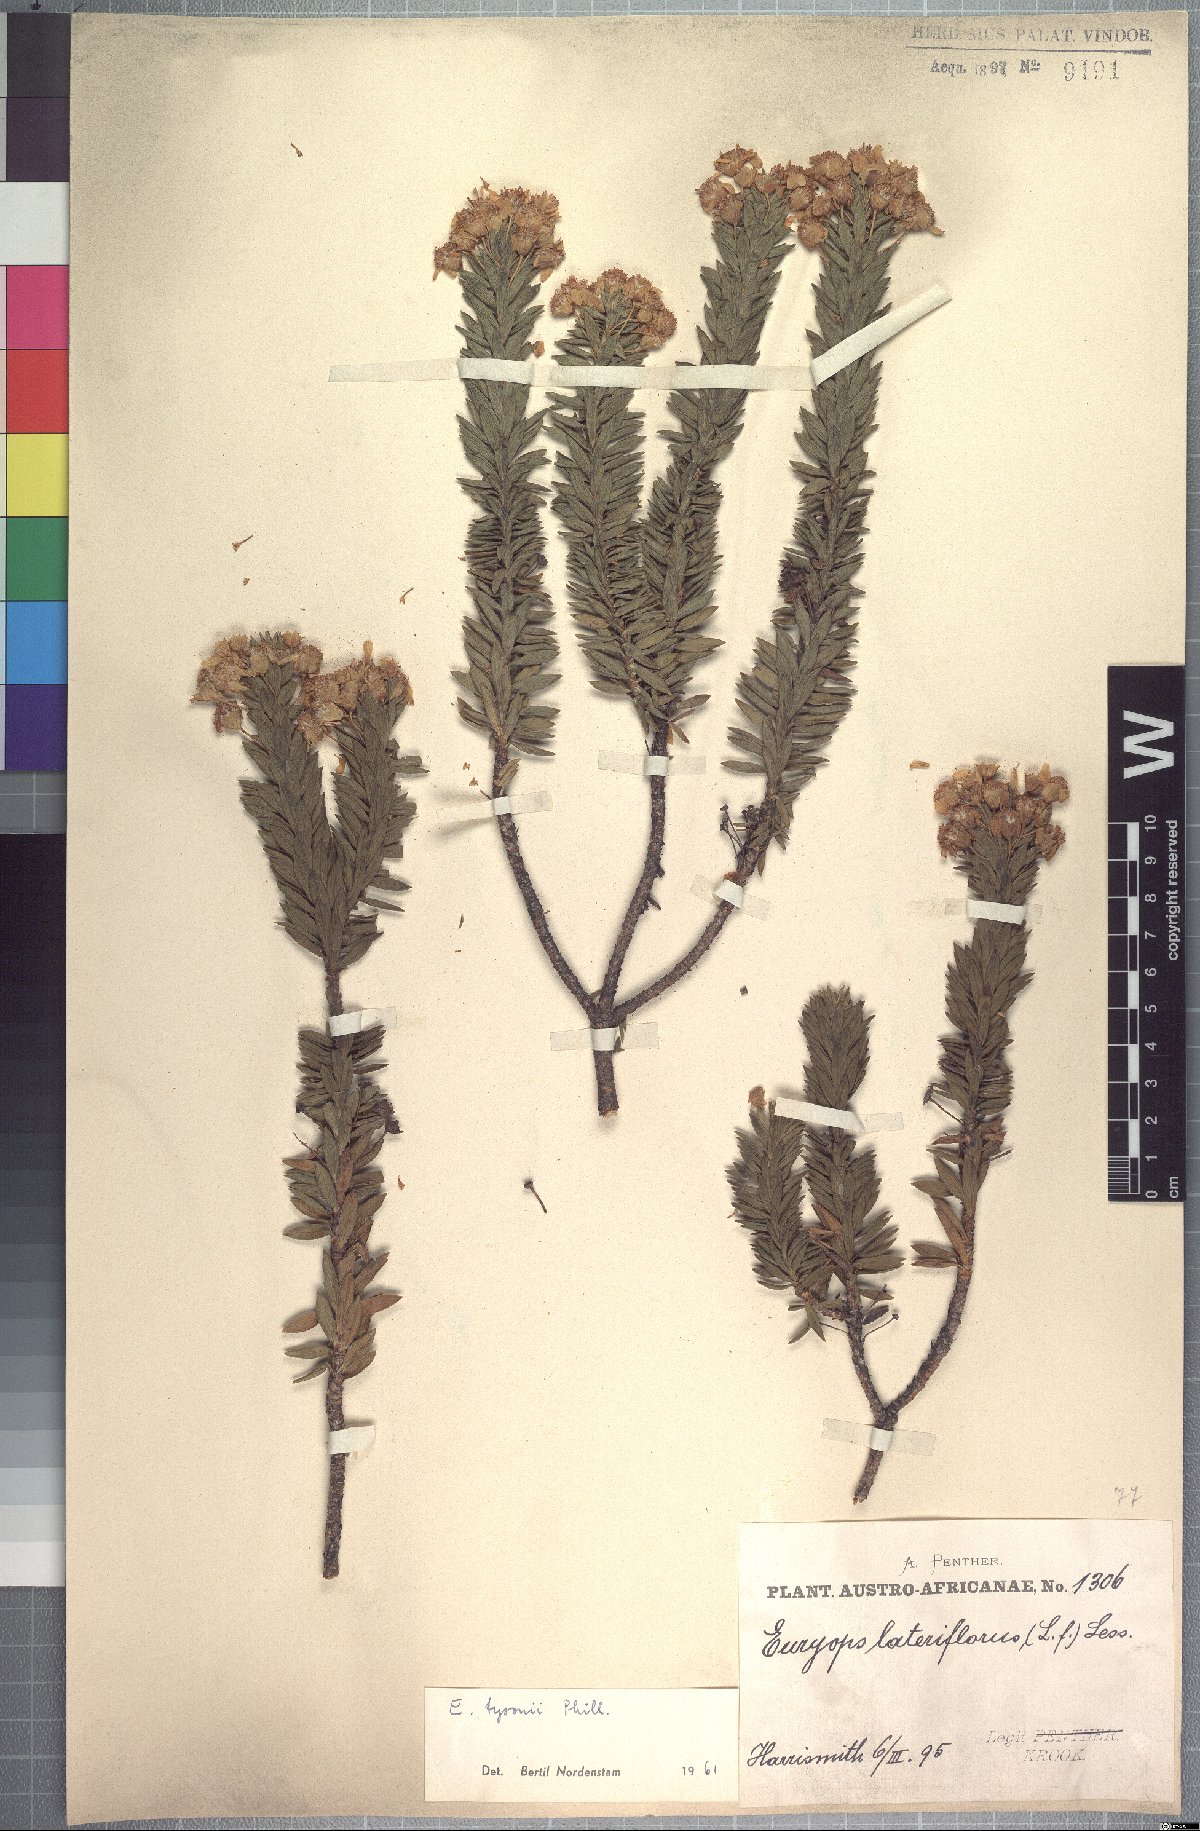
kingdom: Plantae
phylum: Tracheophyta
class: Magnoliopsida
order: Asterales
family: Asteraceae
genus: Euryops
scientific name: Euryops tysonii
